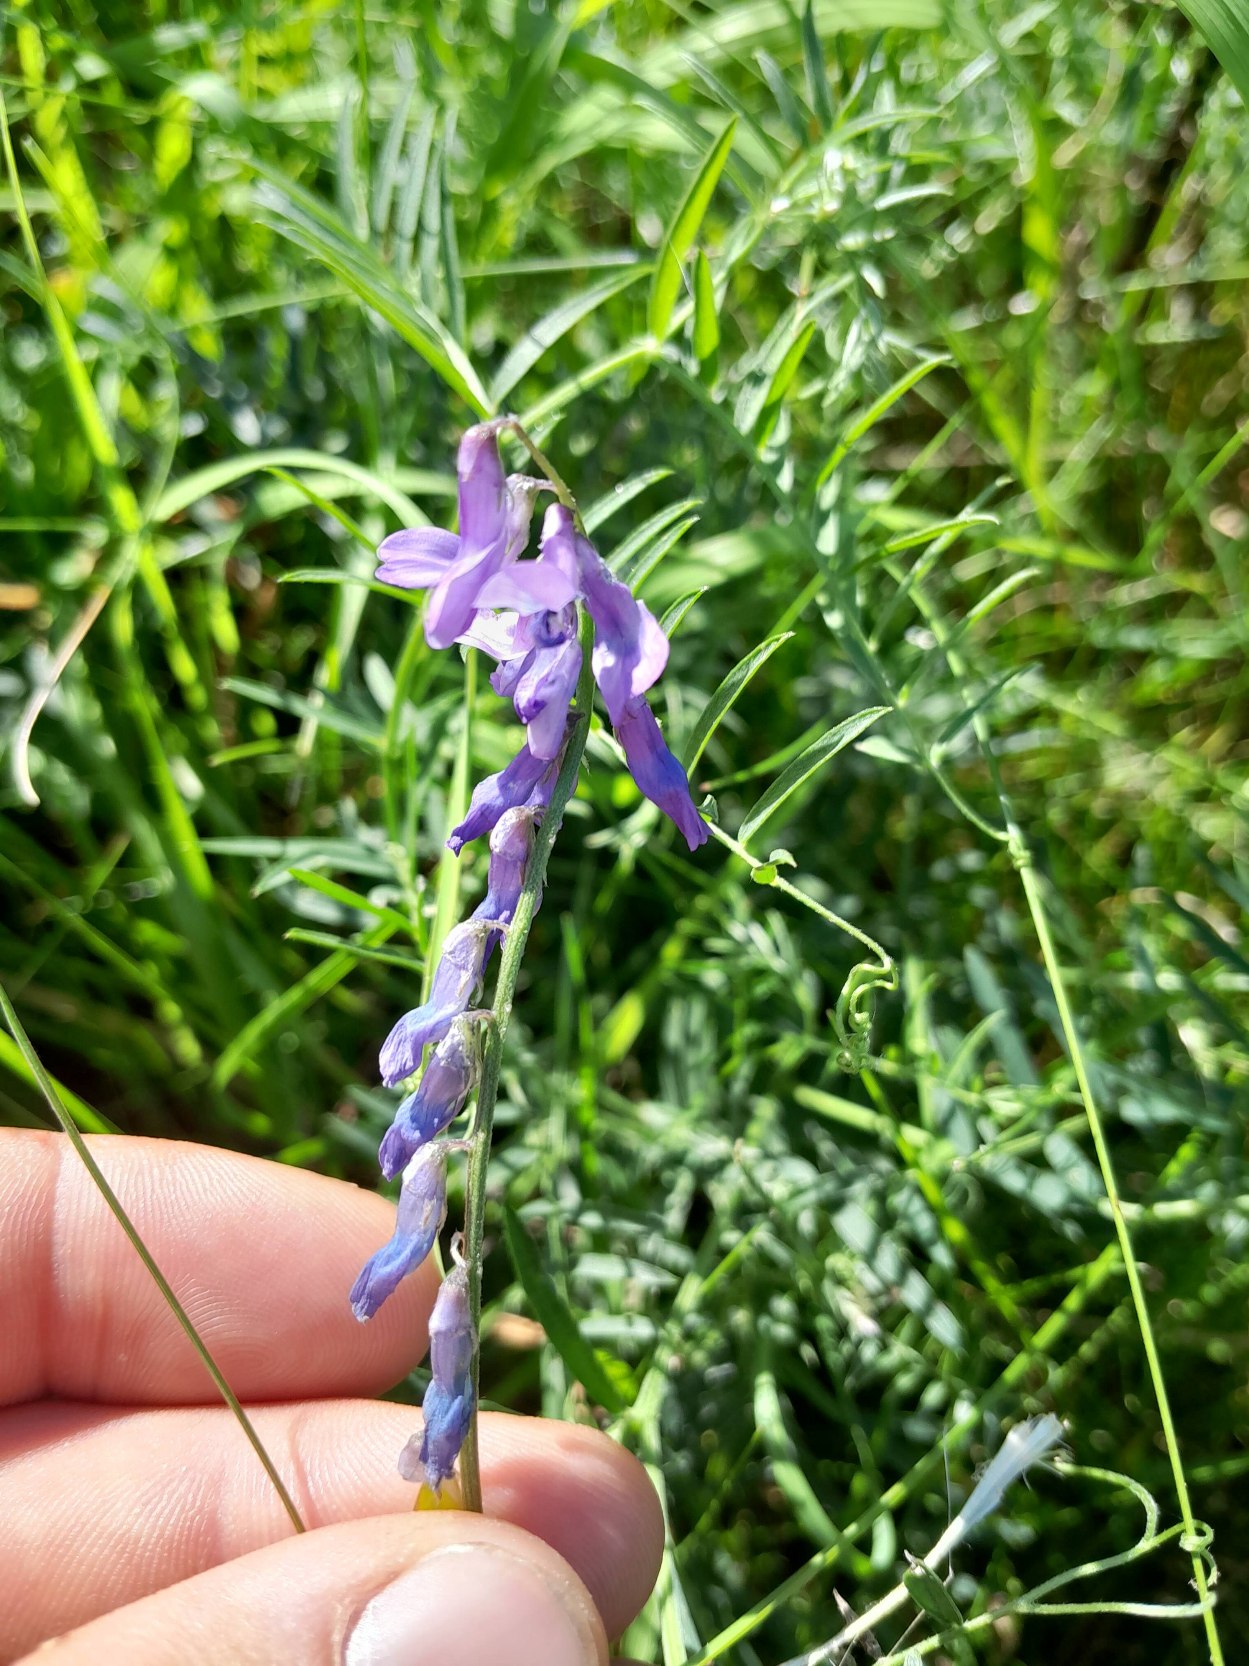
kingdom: Plantae
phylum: Tracheophyta
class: Magnoliopsida
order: Fabales
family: Fabaceae
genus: Vicia
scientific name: Vicia cracca
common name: Muse-vikke
